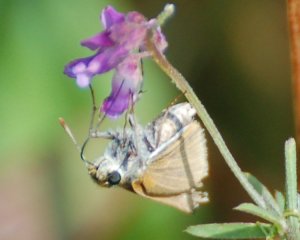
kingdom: Animalia
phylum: Arthropoda
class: Insecta
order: Lepidoptera
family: Hesperiidae
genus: Thymelicus
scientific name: Thymelicus lineola
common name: European Skipper
